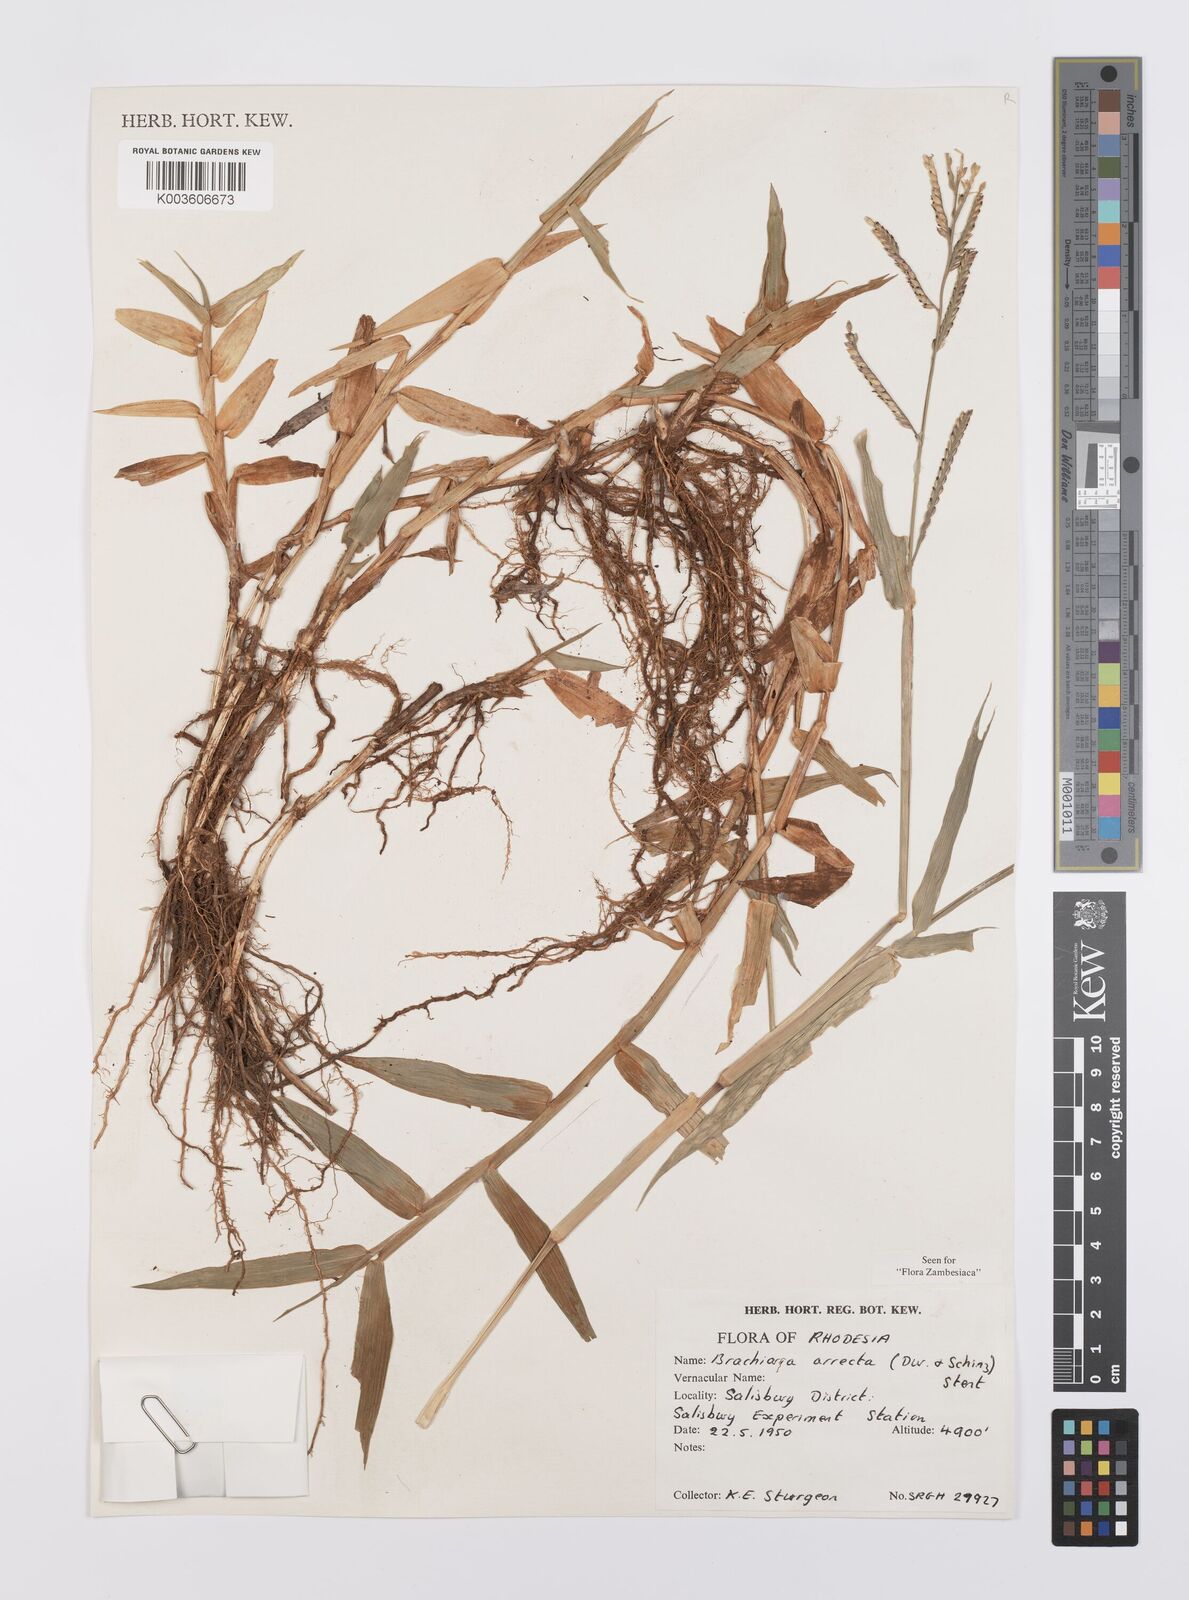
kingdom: Plantae
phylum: Tracheophyta
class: Liliopsida
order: Poales
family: Poaceae
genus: Urochloa
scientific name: Urochloa arrecta
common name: African signalgrass
